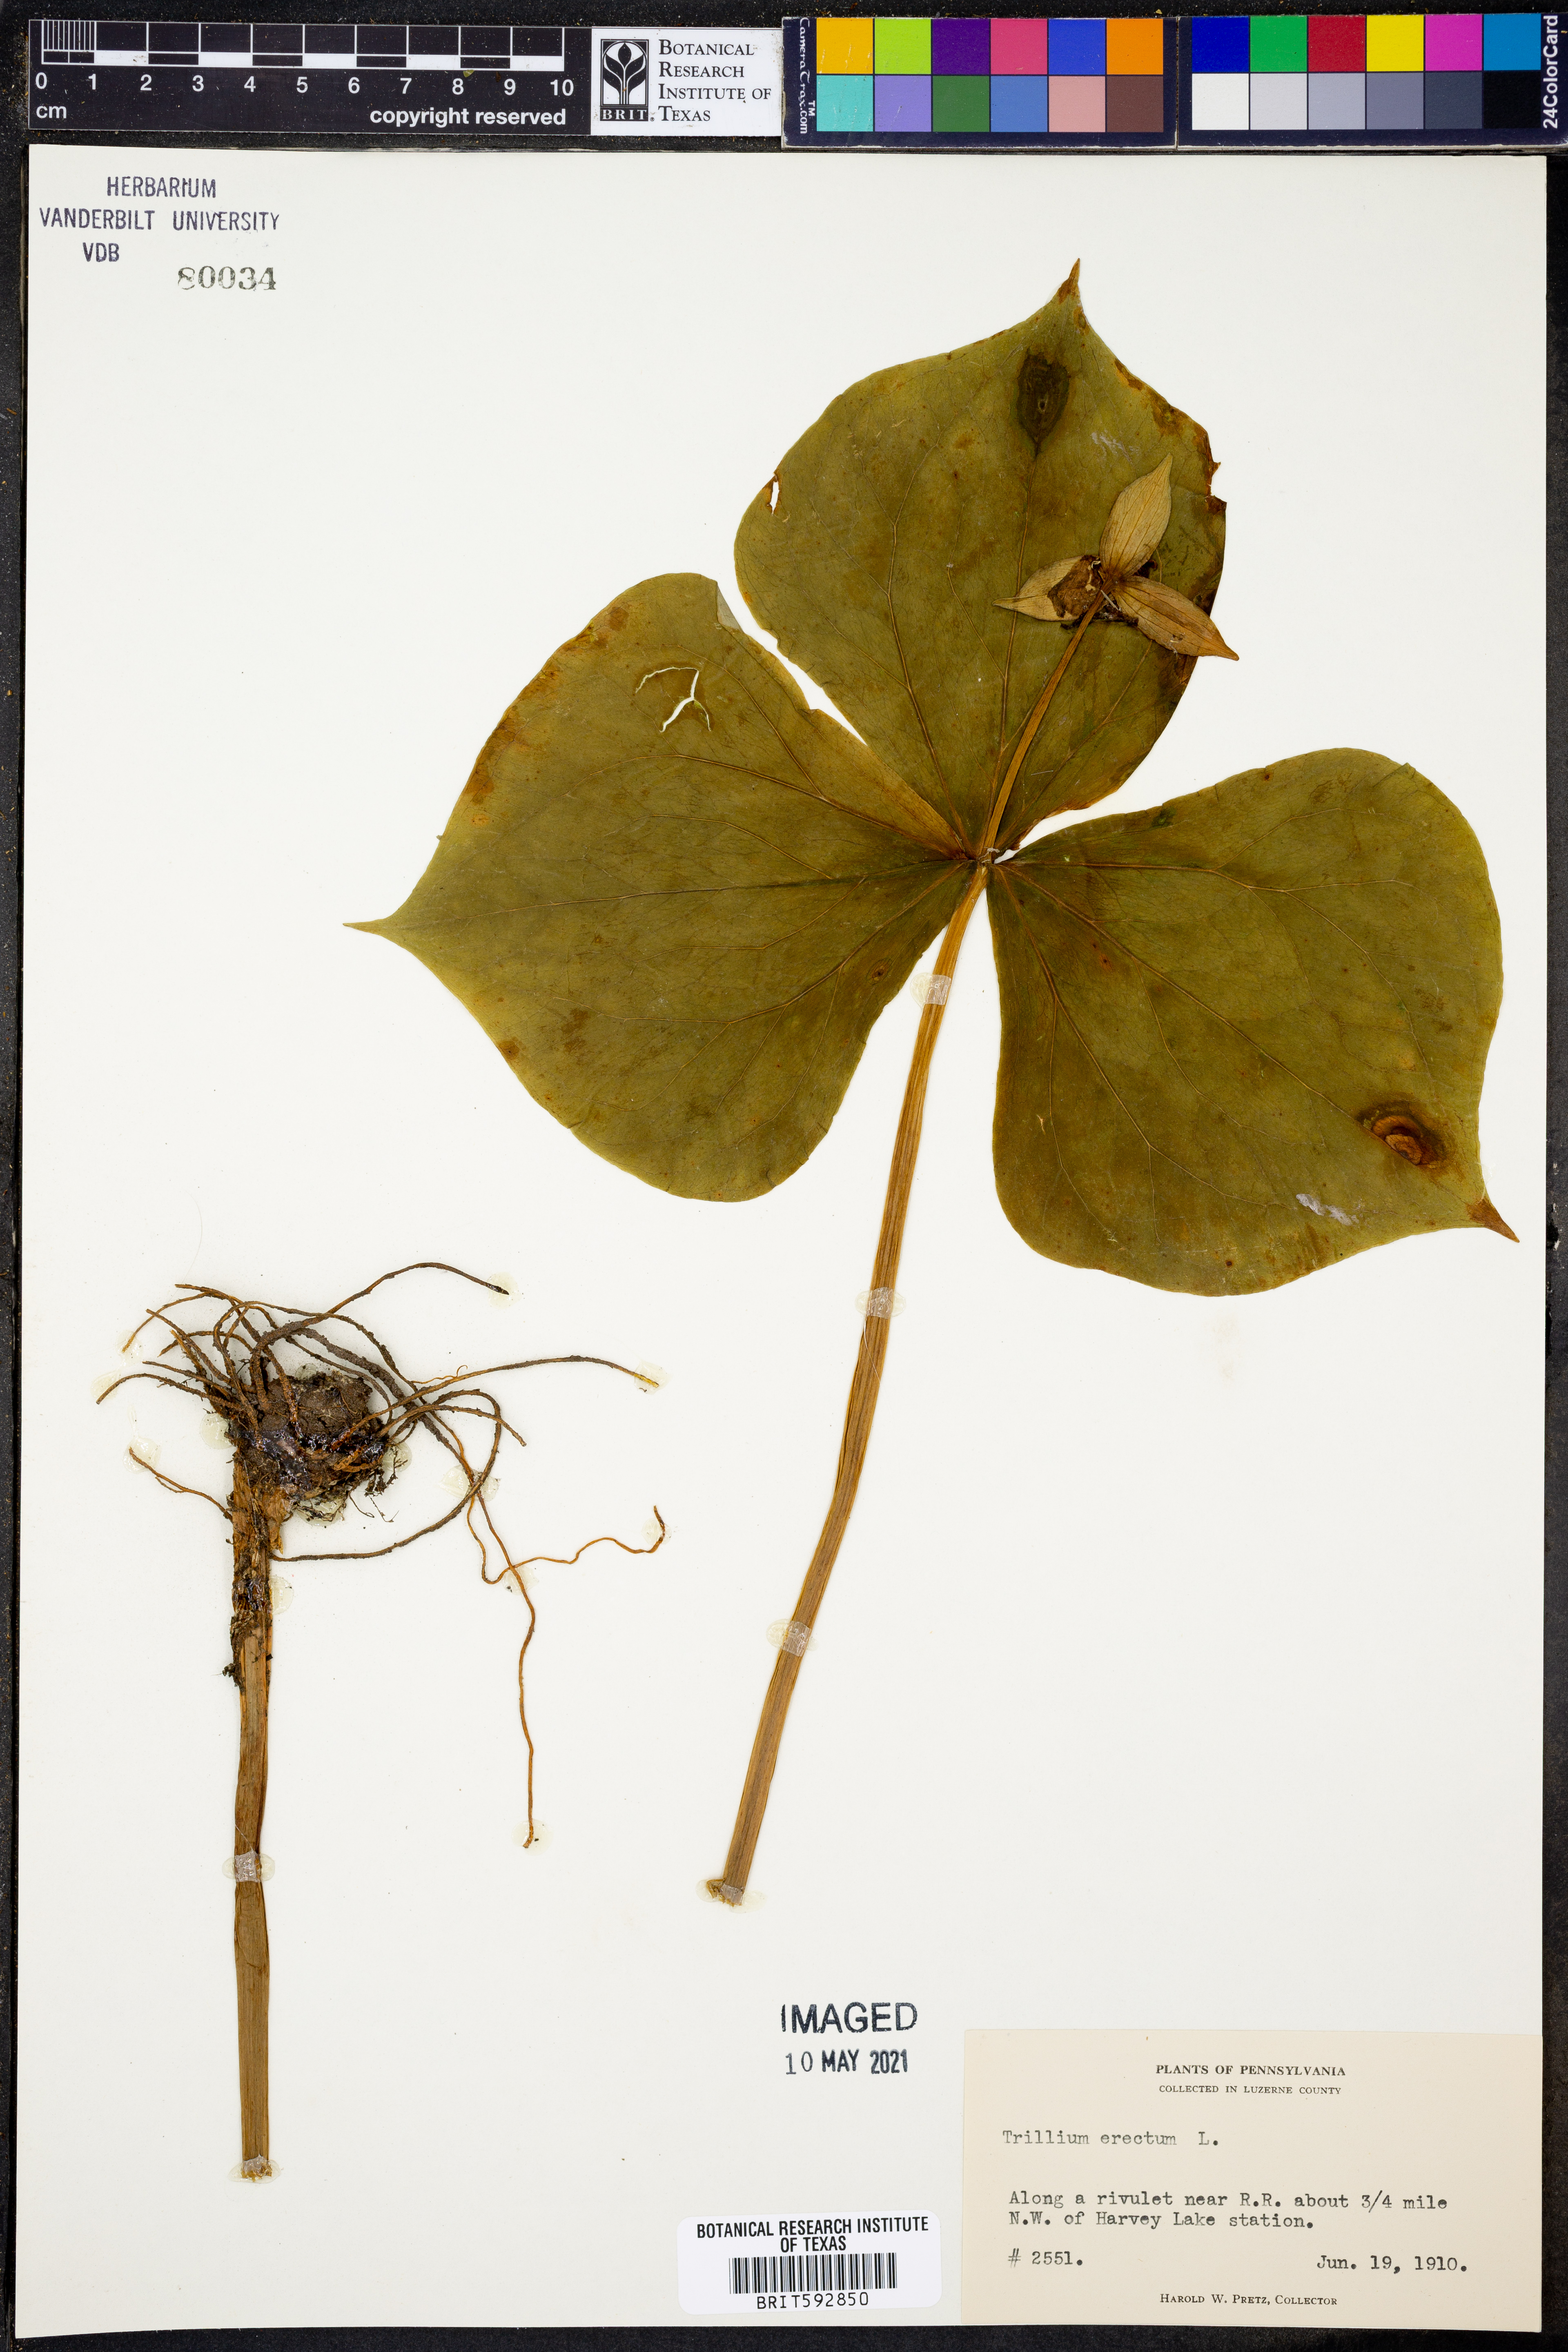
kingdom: Plantae
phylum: Tracheophyta
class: Liliopsida
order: Liliales
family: Melanthiaceae
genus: Trillium
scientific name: Trillium erectum
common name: Purple trillium
